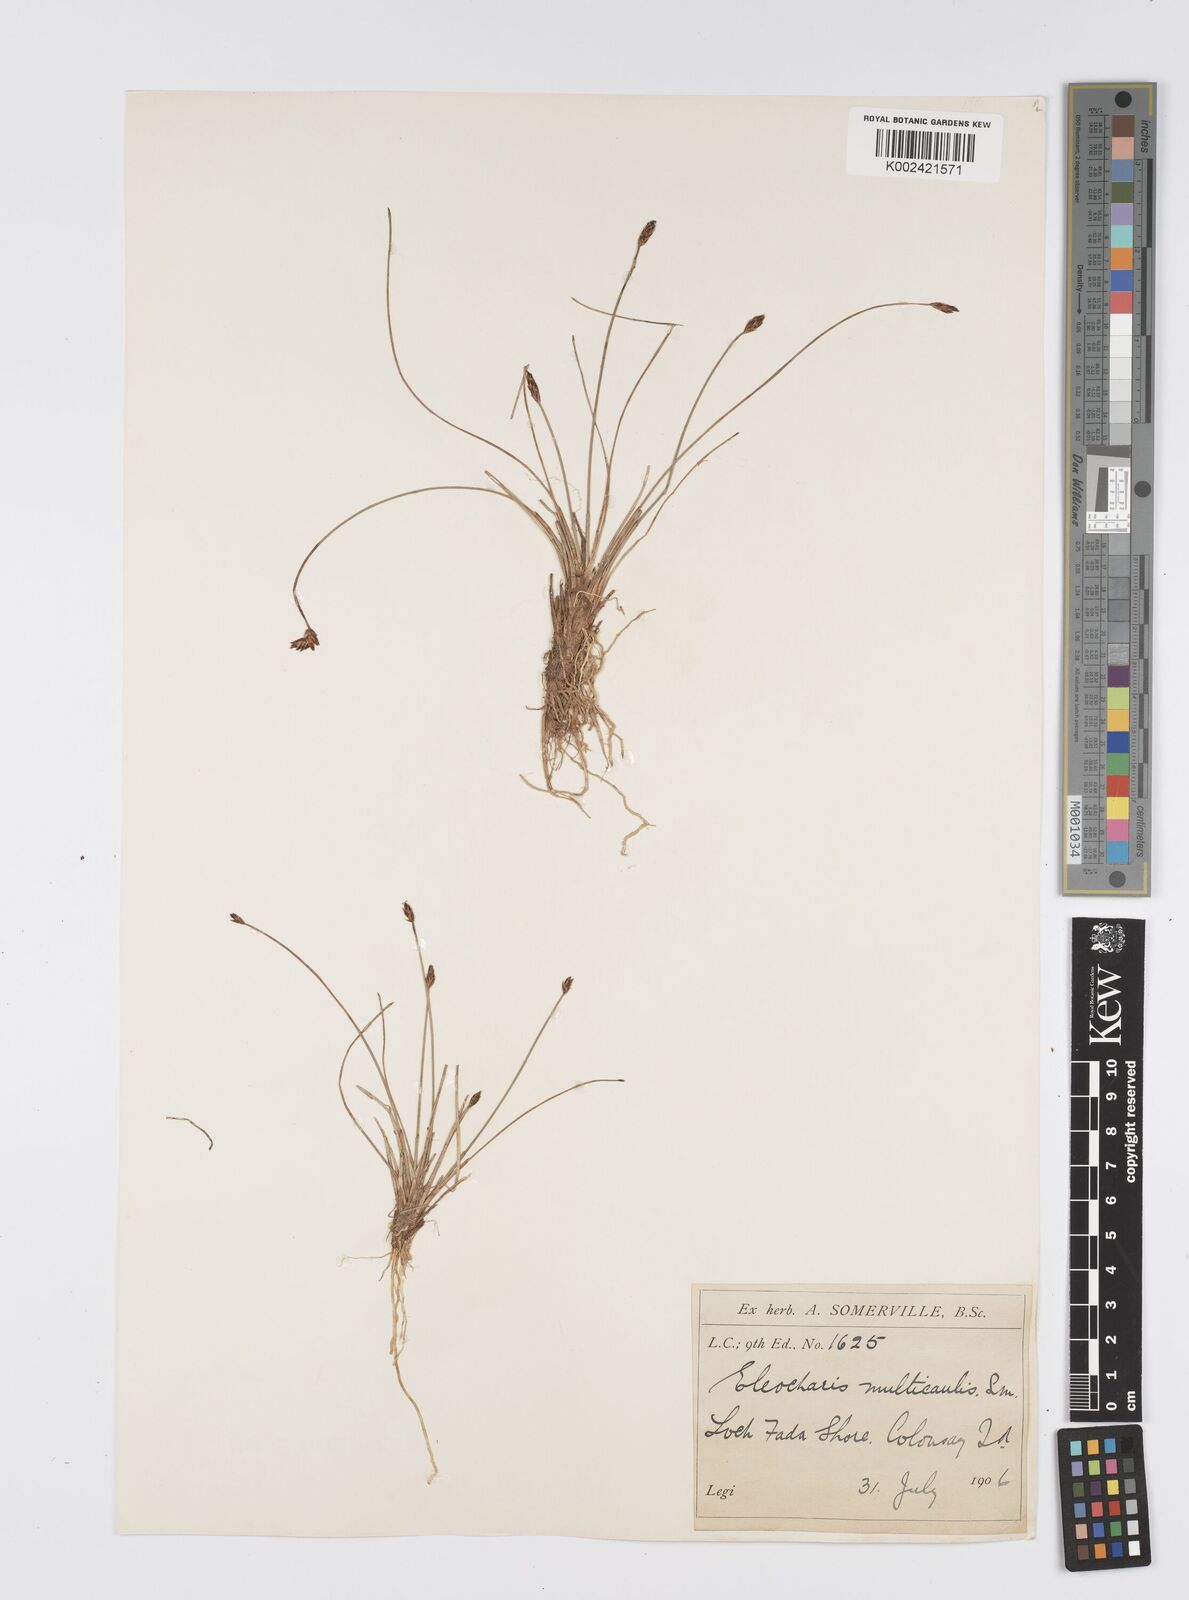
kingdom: Plantae
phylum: Tracheophyta
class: Liliopsida
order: Poales
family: Cyperaceae
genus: Eleocharis
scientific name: Eleocharis multicaulis
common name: Many-stalked spike-rush
